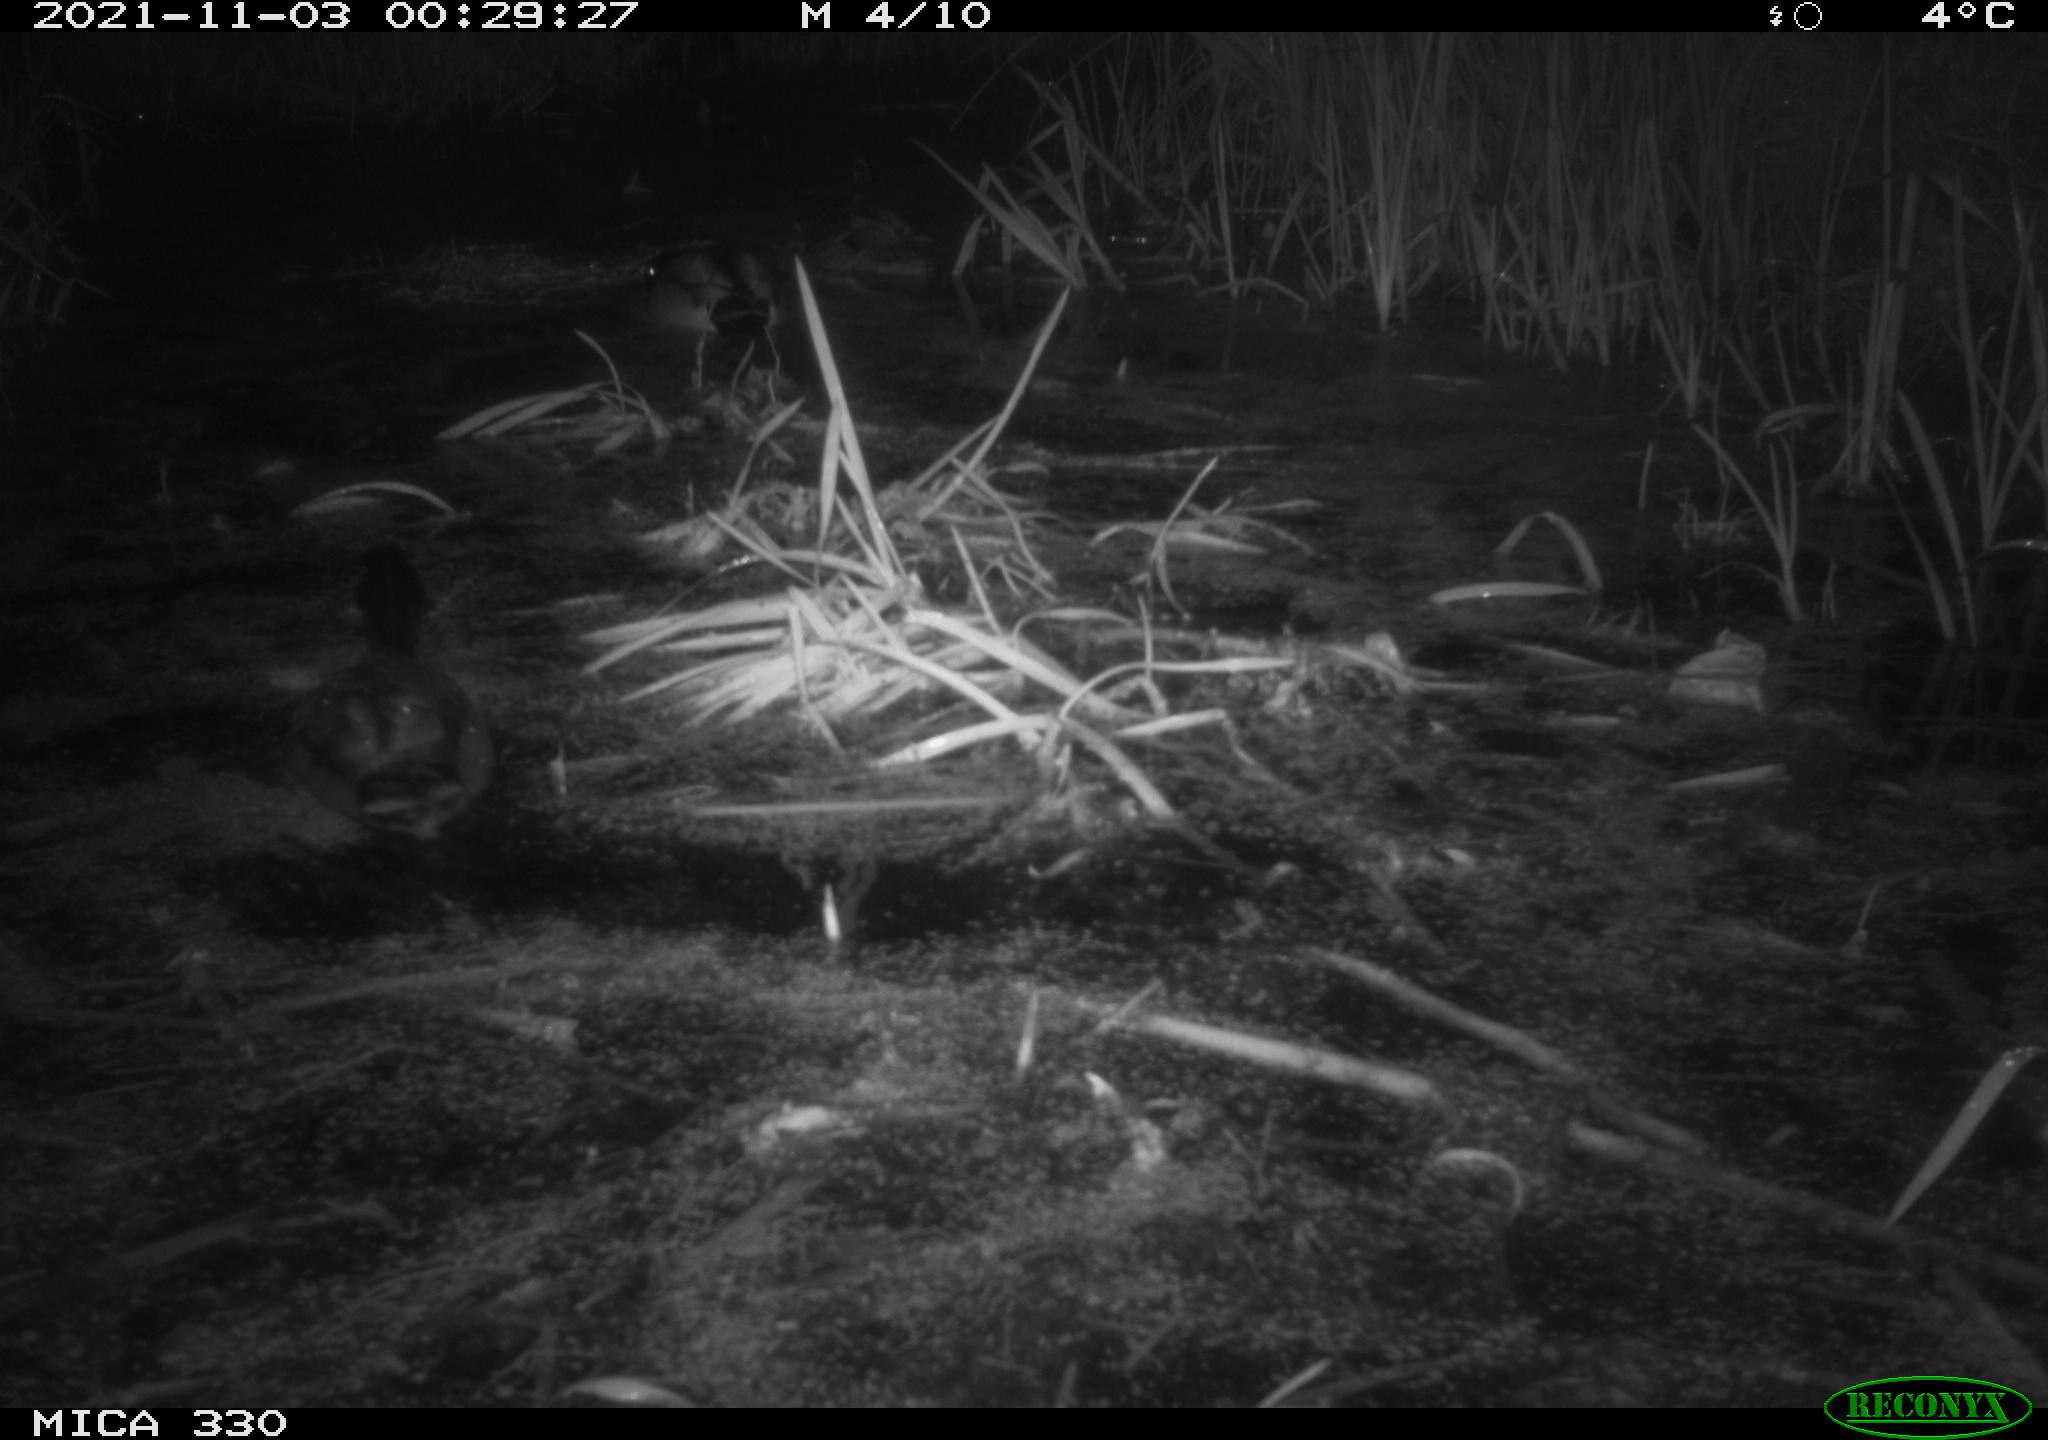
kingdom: Animalia
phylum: Chordata
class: Aves
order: Anseriformes
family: Anatidae
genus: Anas
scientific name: Anas platyrhynchos
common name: Mallard
